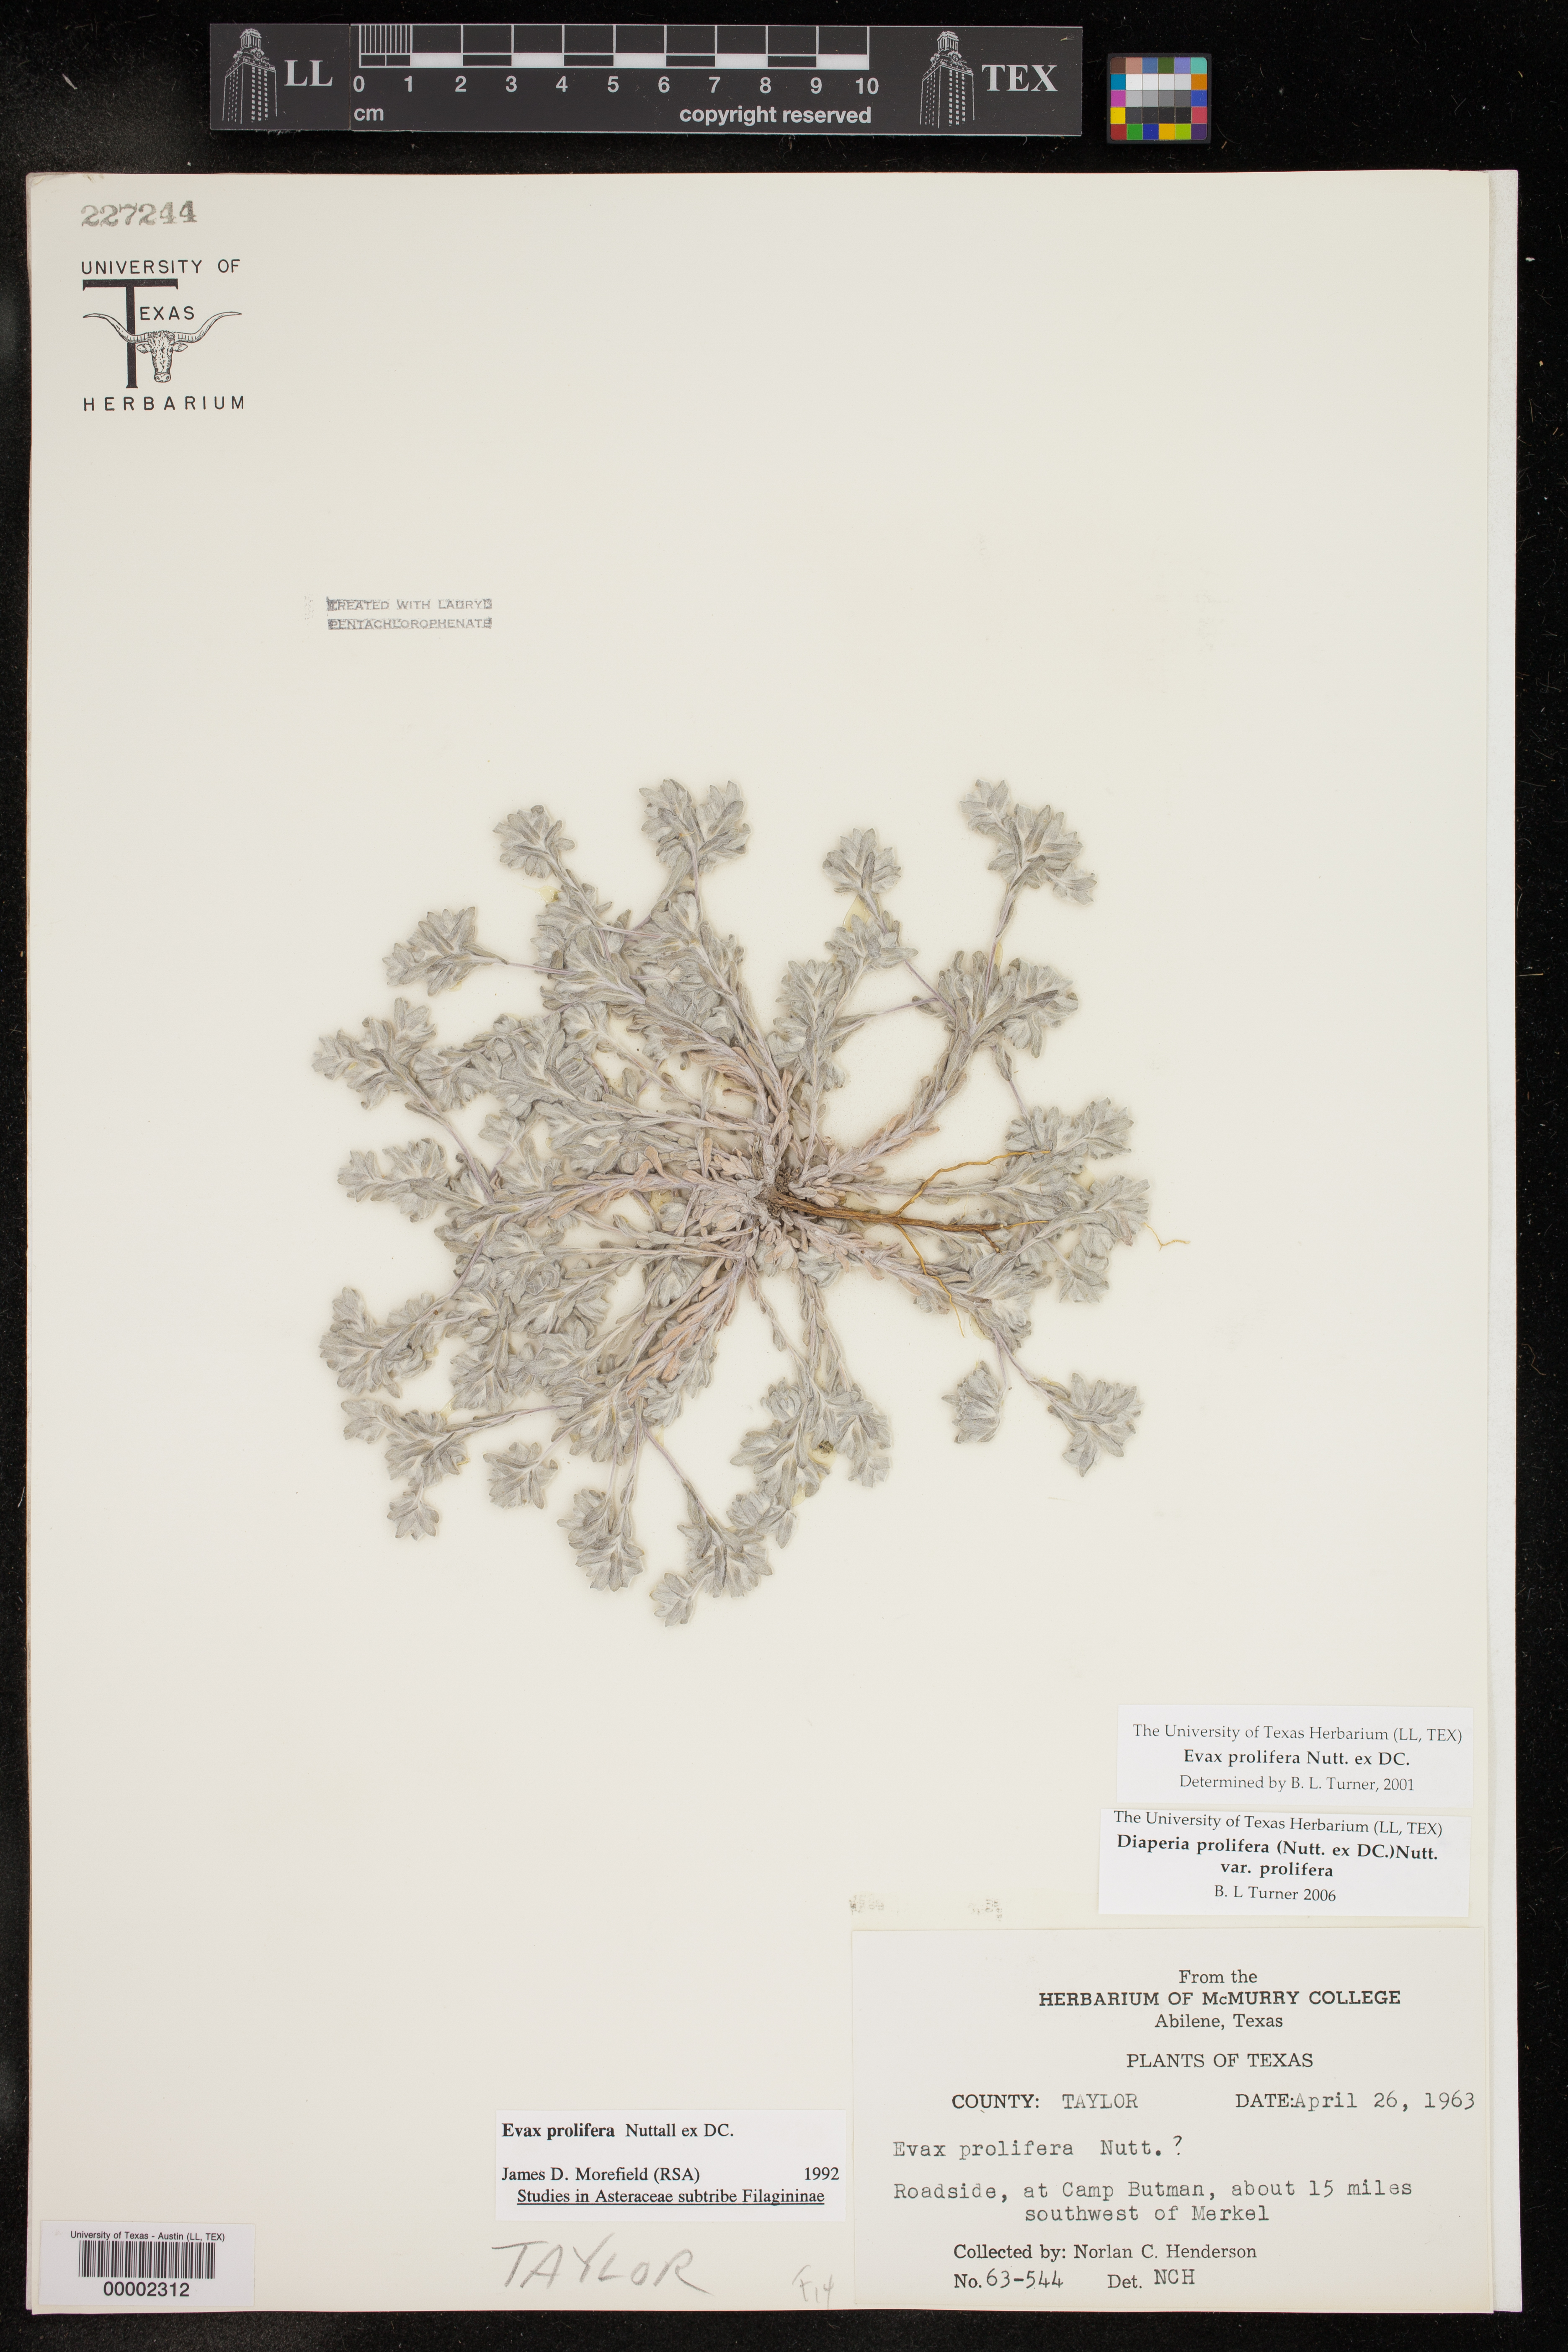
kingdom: Plantae
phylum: Tracheophyta
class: Magnoliopsida
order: Asterales
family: Asteraceae
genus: Diaperia
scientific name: Diaperia prolifera
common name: Big-head rabbit-tobacco
